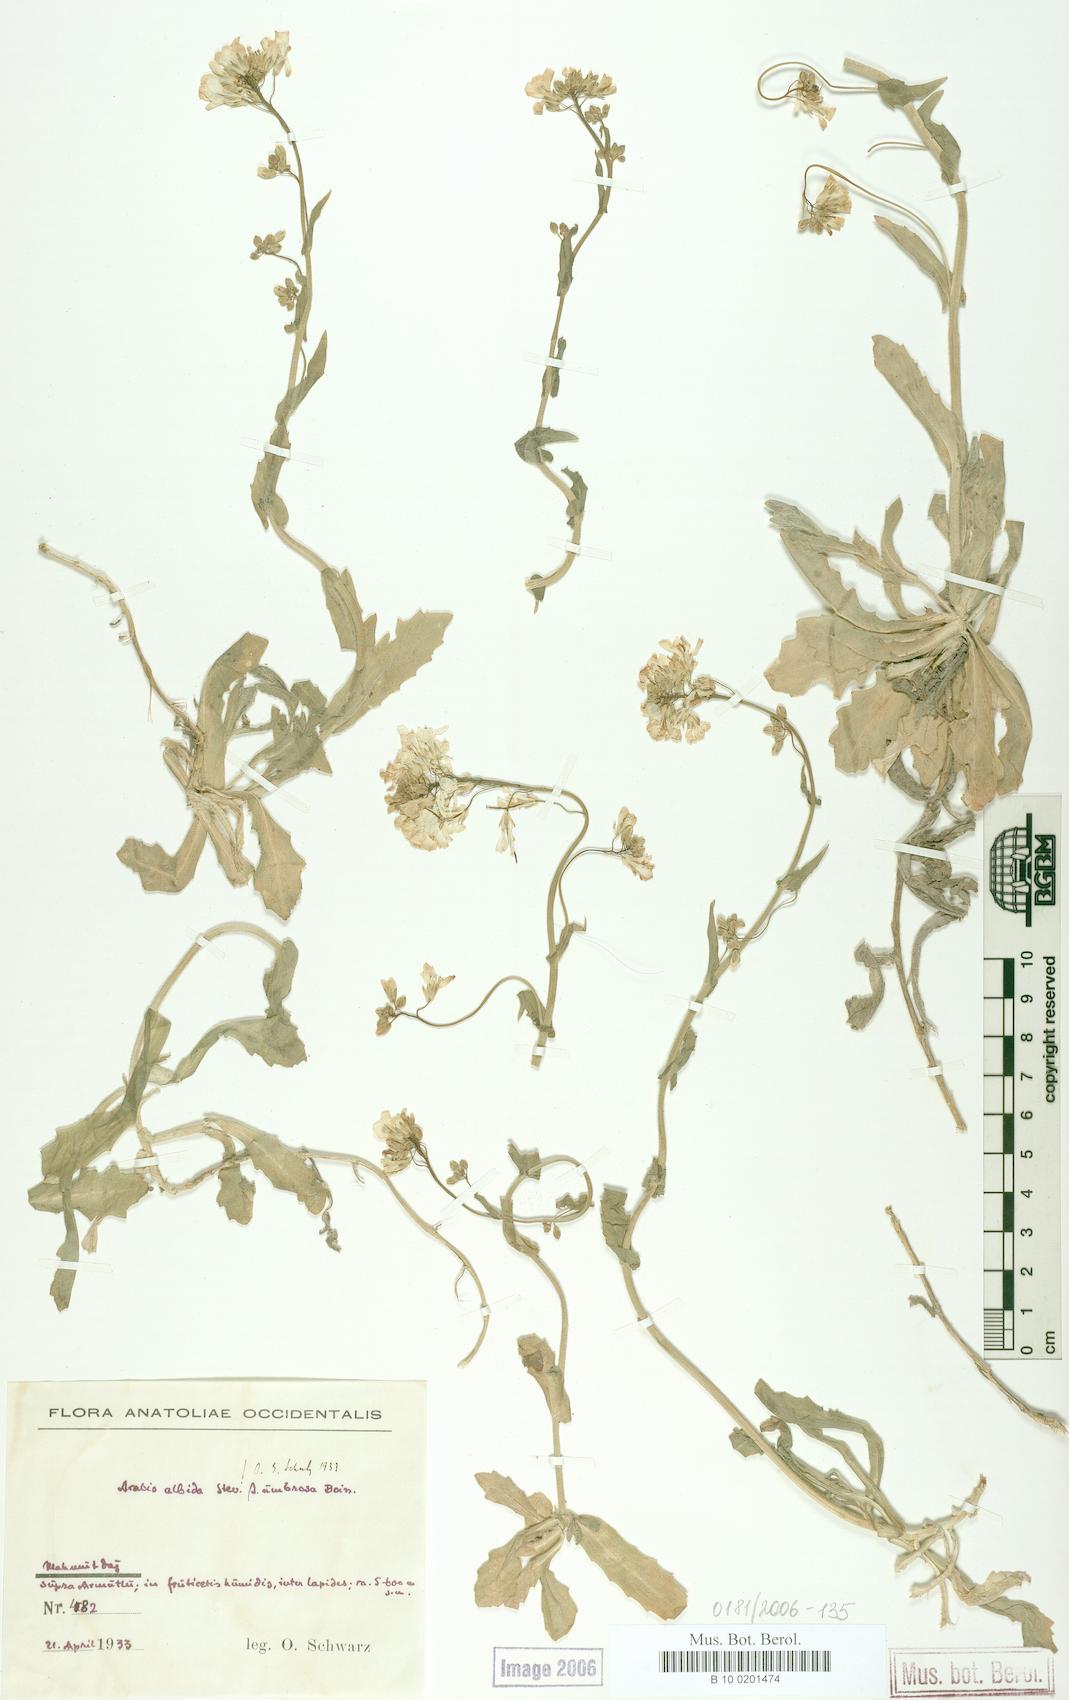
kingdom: Plantae
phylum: Tracheophyta
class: Magnoliopsida
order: Brassicales
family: Brassicaceae
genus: Arabis
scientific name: Arabis alpina
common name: Alpine rock-cress
